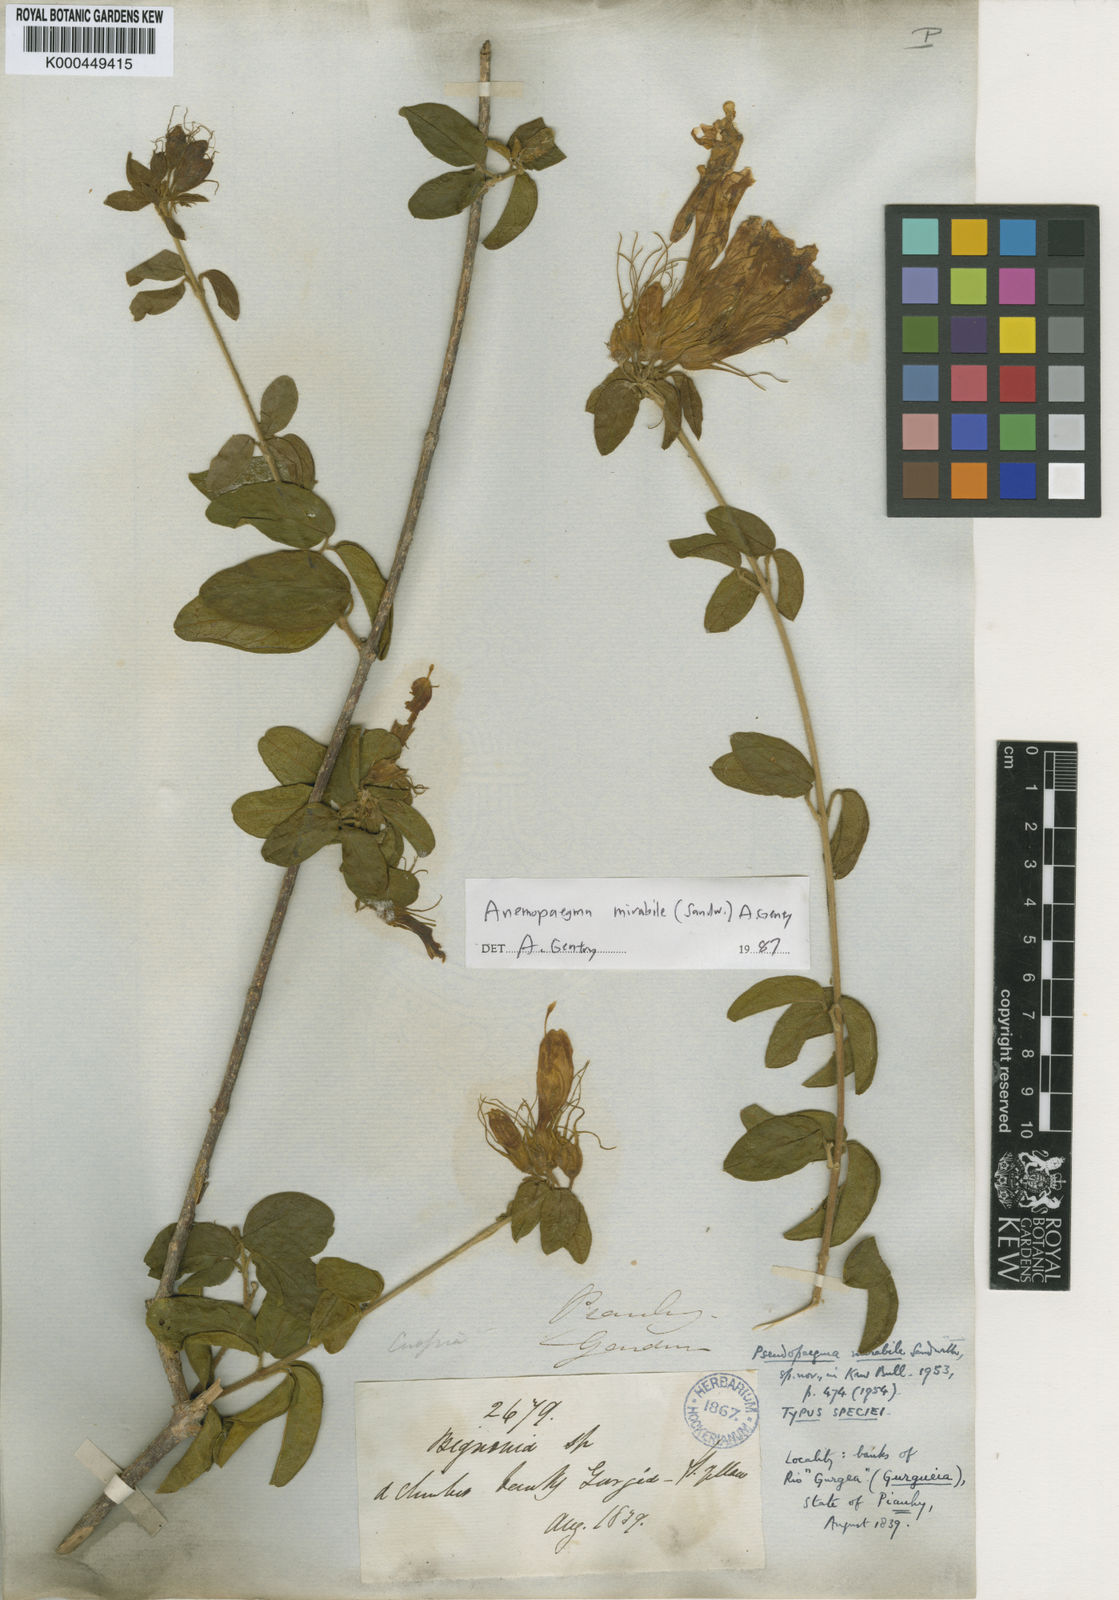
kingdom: Plantae
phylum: Tracheophyta
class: Magnoliopsida
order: Lamiales
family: Bignoniaceae
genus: Anemopaegma
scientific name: Anemopaegma mirabile
